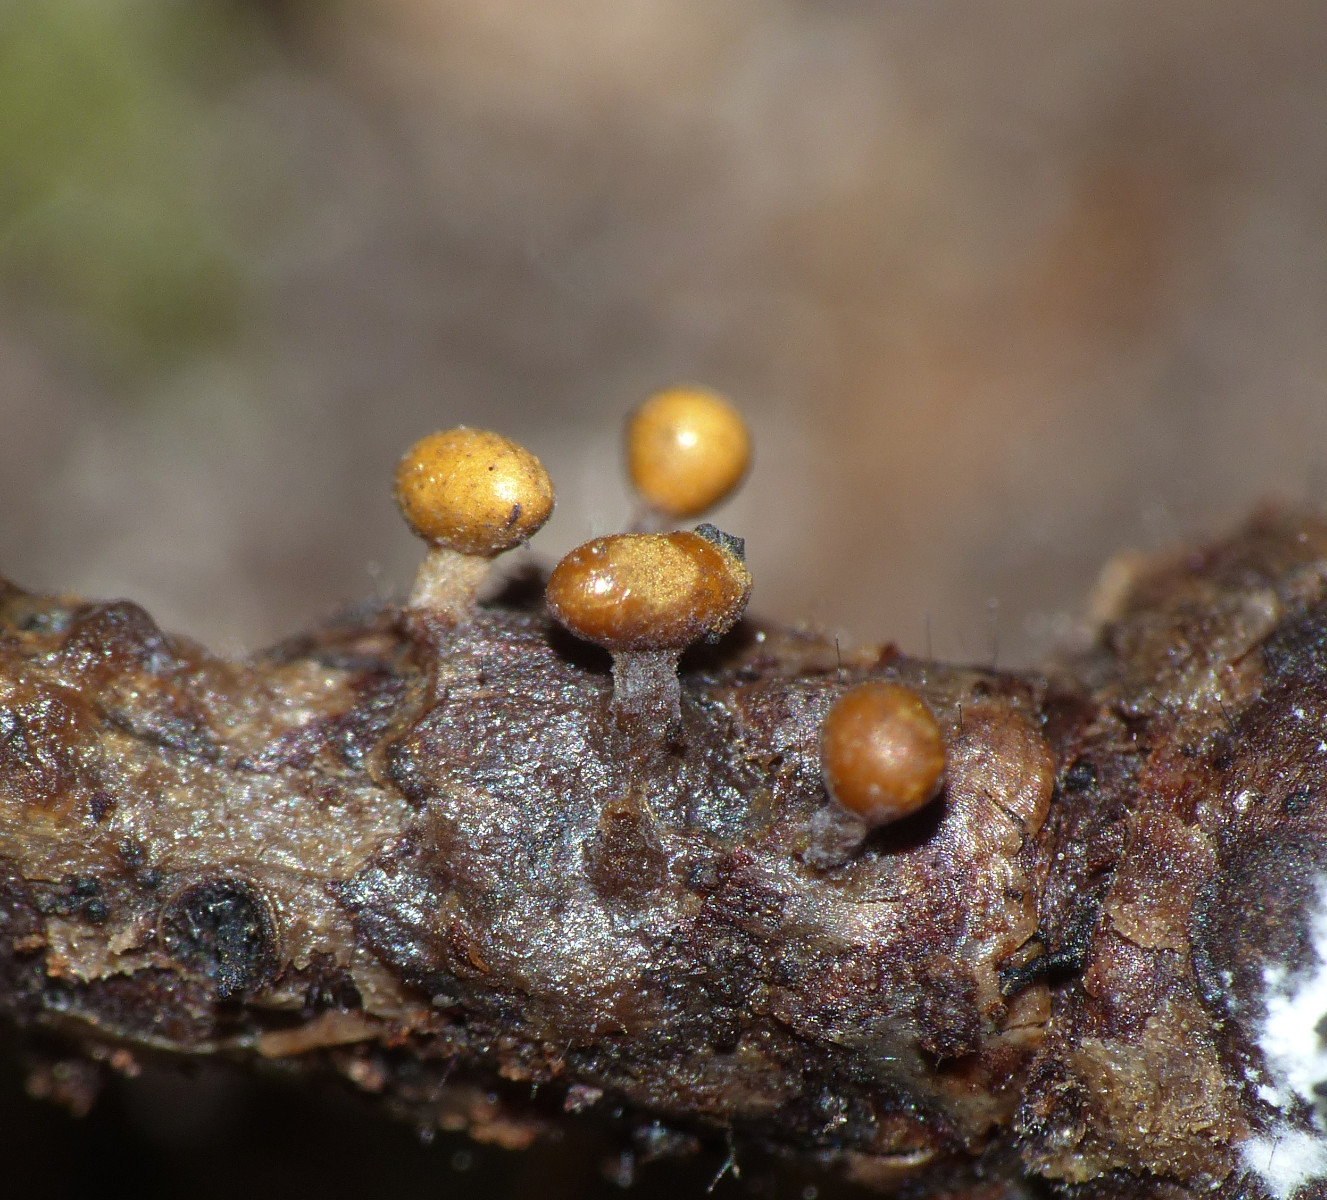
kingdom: Protozoa
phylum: Mycetozoa
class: Myxomycetes
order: Trichiales
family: Trichiaceae
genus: Trichia
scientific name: Trichia varia
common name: foranderlig hårbold
